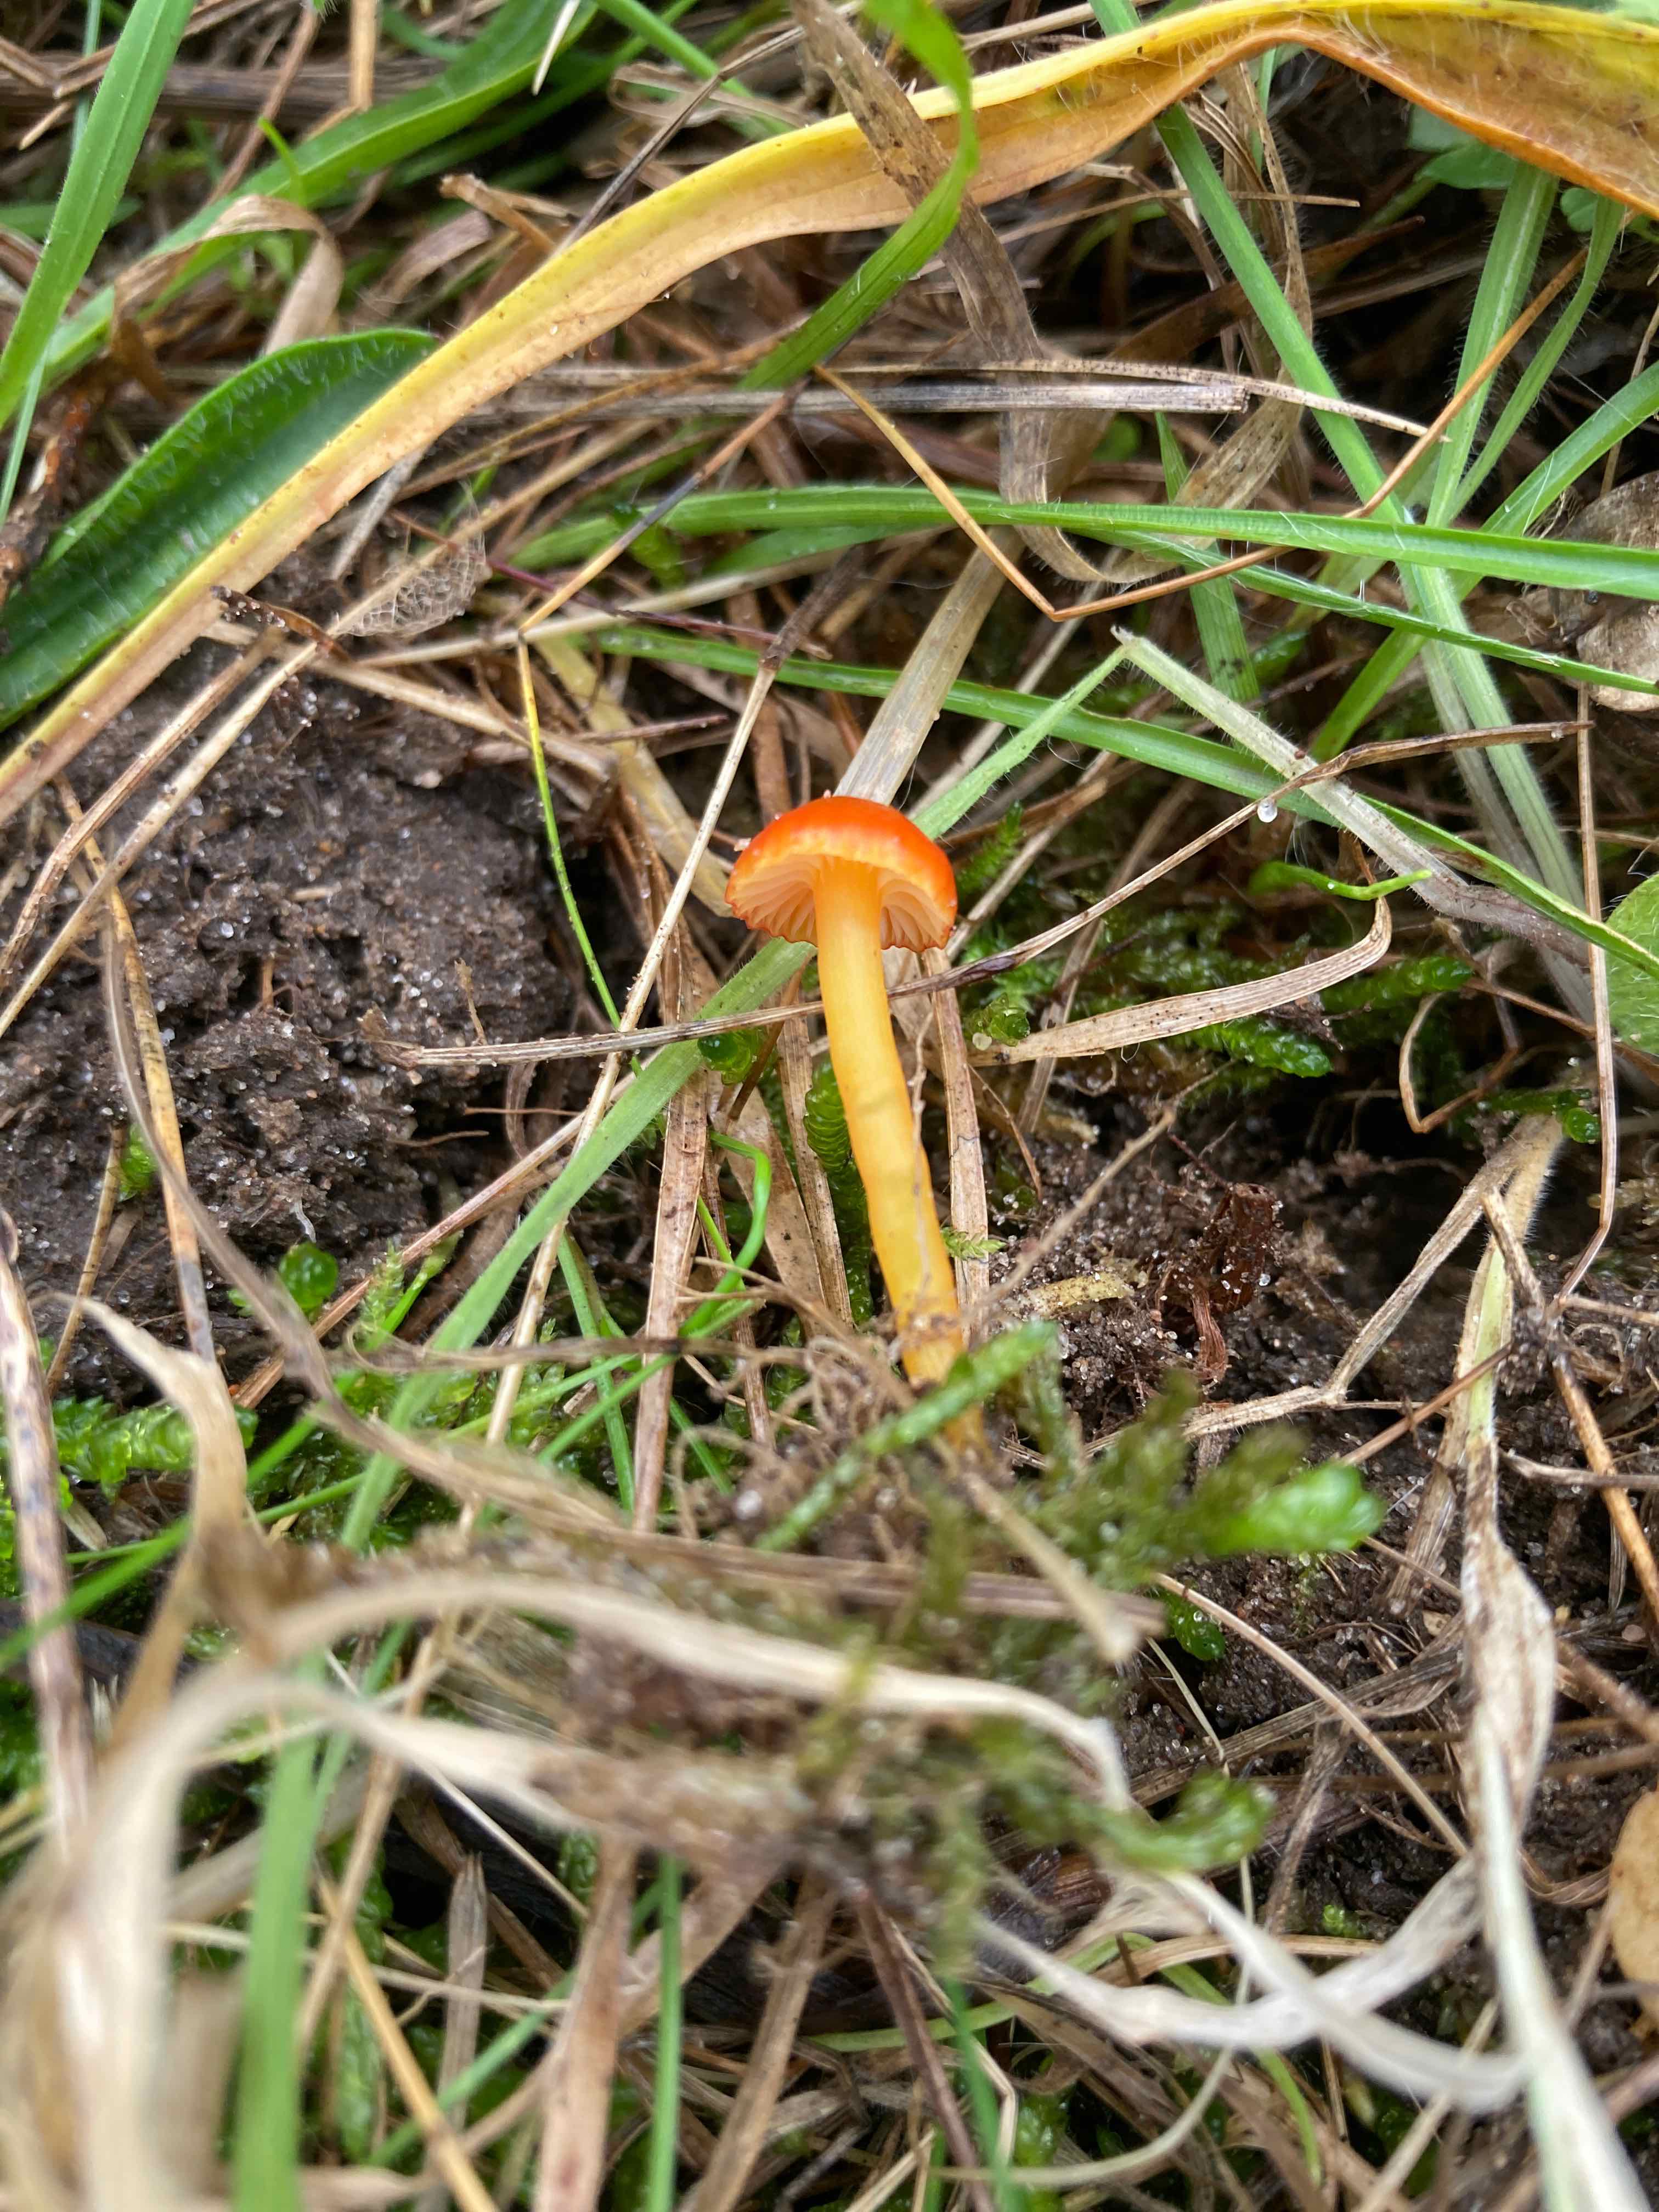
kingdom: Fungi
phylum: Basidiomycota
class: Agaricomycetes
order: Agaricales
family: Hygrophoraceae
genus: Hygrocybe
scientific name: Hygrocybe insipida
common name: liden vokshat
